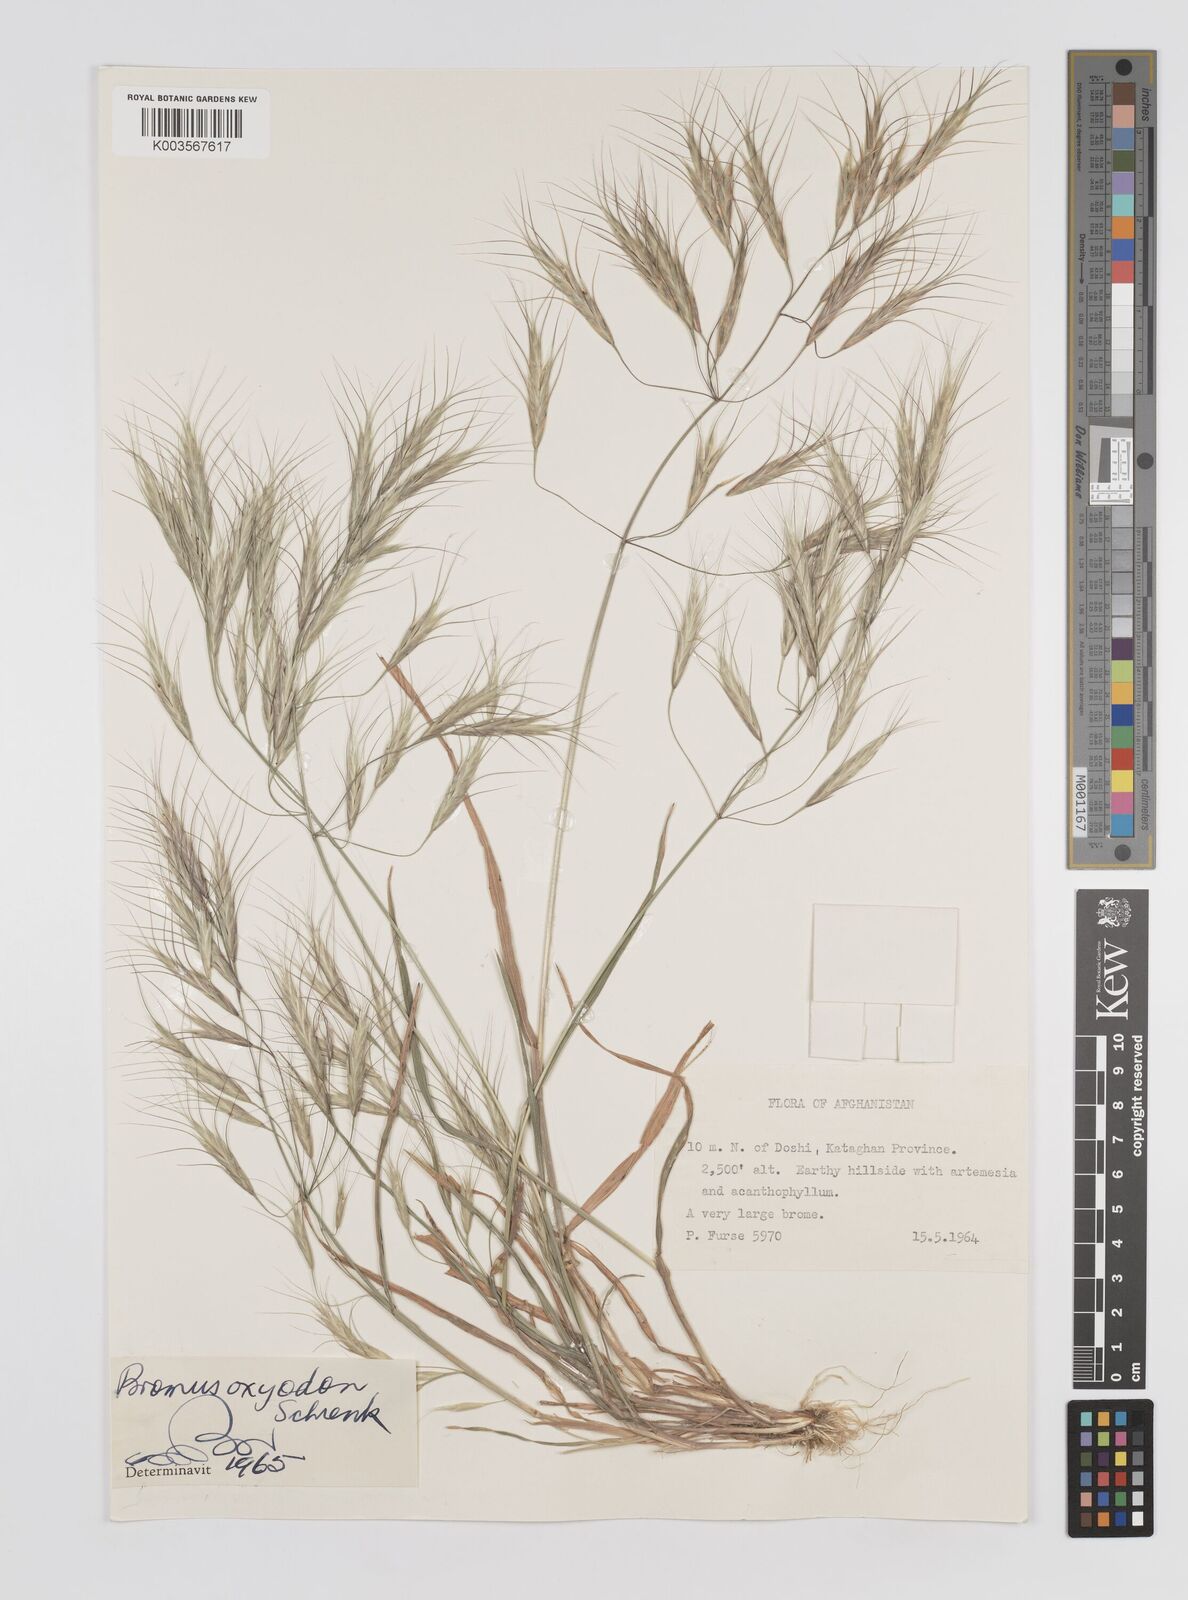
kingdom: Plantae
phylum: Tracheophyta
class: Liliopsida
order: Poales
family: Poaceae
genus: Bromus
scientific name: Bromus oxyodon
